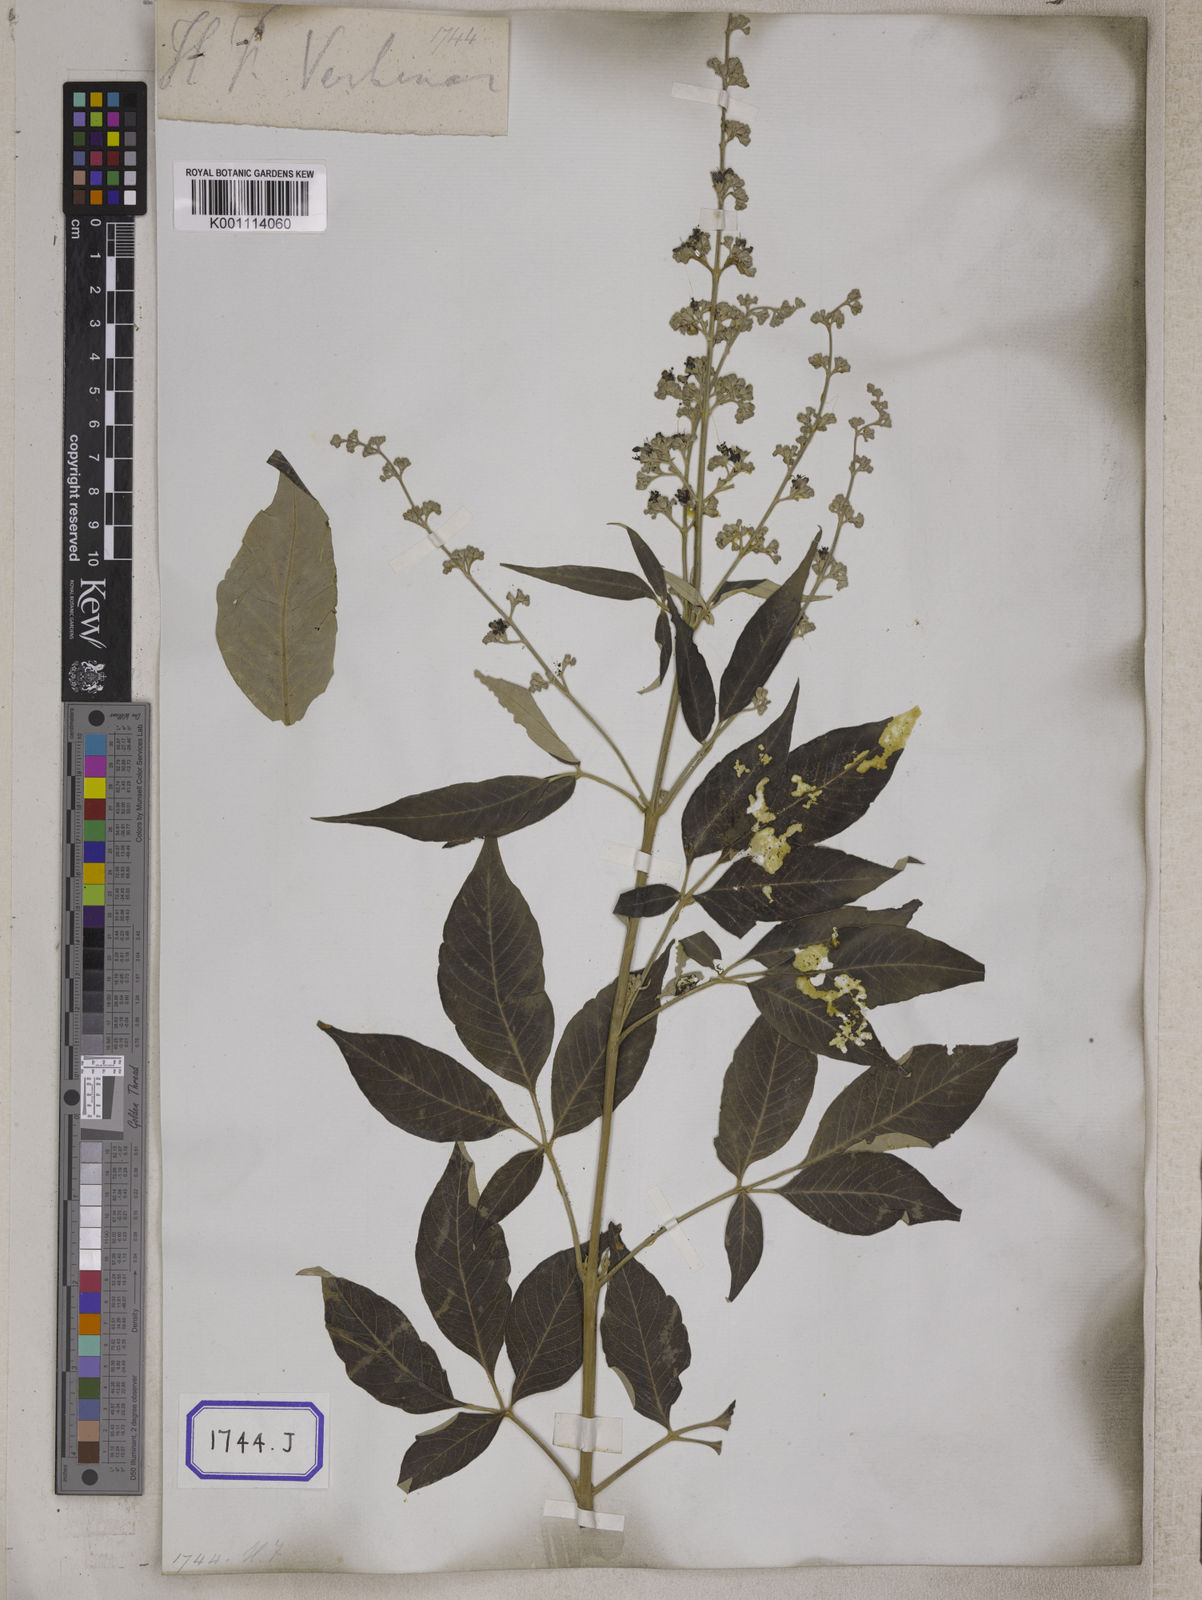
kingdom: Plantae
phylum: Tracheophyta
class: Magnoliopsida
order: Lamiales
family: Lamiaceae
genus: Vitex
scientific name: Vitex negundo
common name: Chinese chastetree
